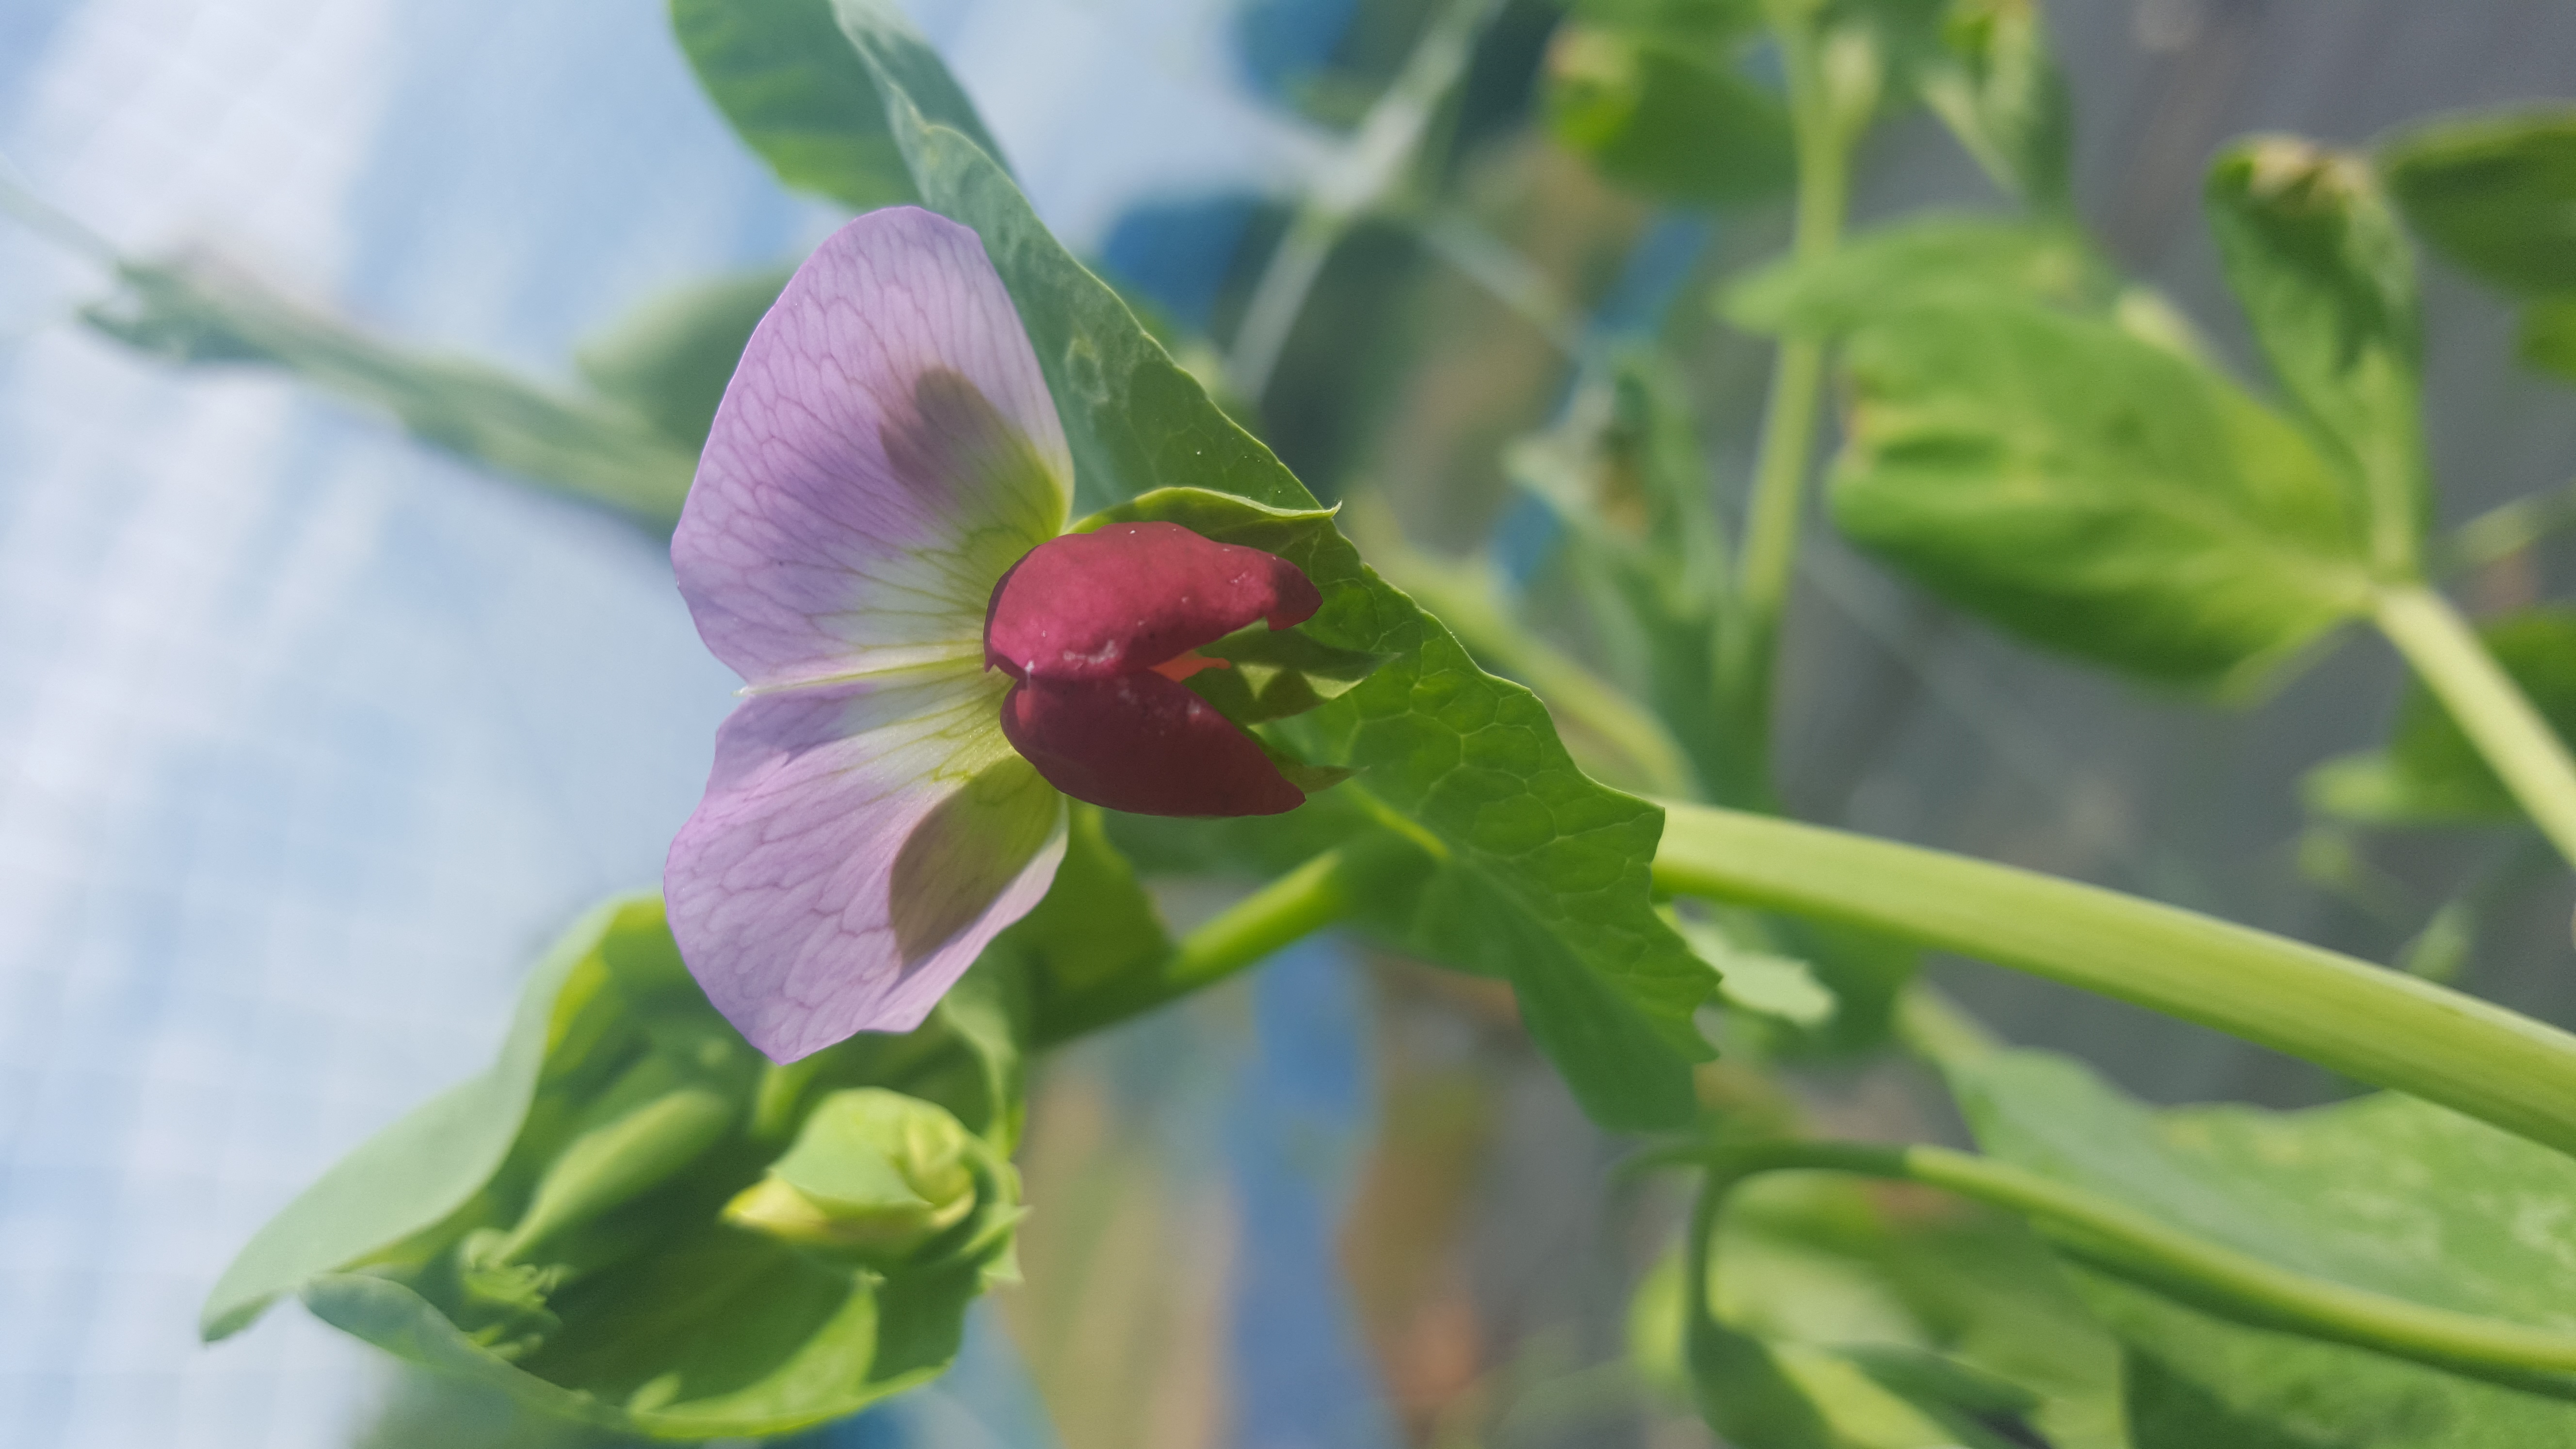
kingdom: Plantae
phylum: Tracheophyta
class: Magnoliopsida
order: Fabales
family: Fabaceae
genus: Lathyrus
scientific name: Lathyrus oleraceus
